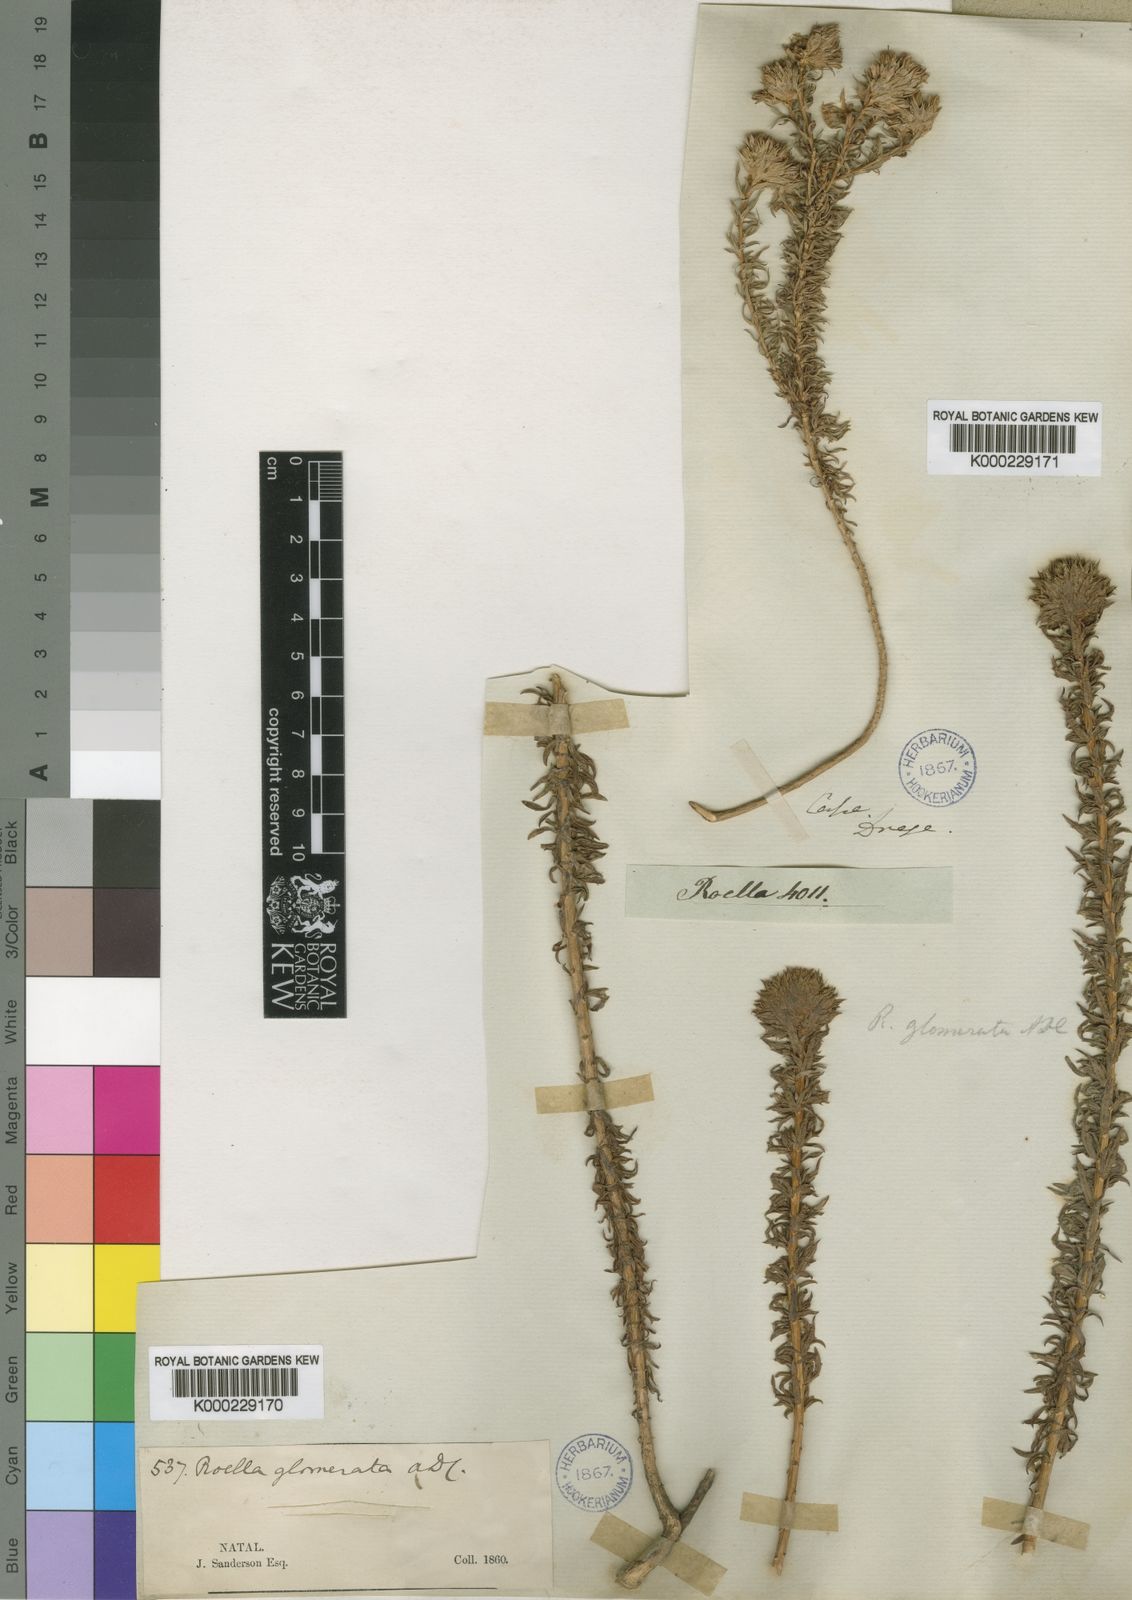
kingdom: Plantae
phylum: Tracheophyta
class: Magnoliopsida
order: Asterales
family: Campanulaceae
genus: Roella
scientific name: Roella glomerata
